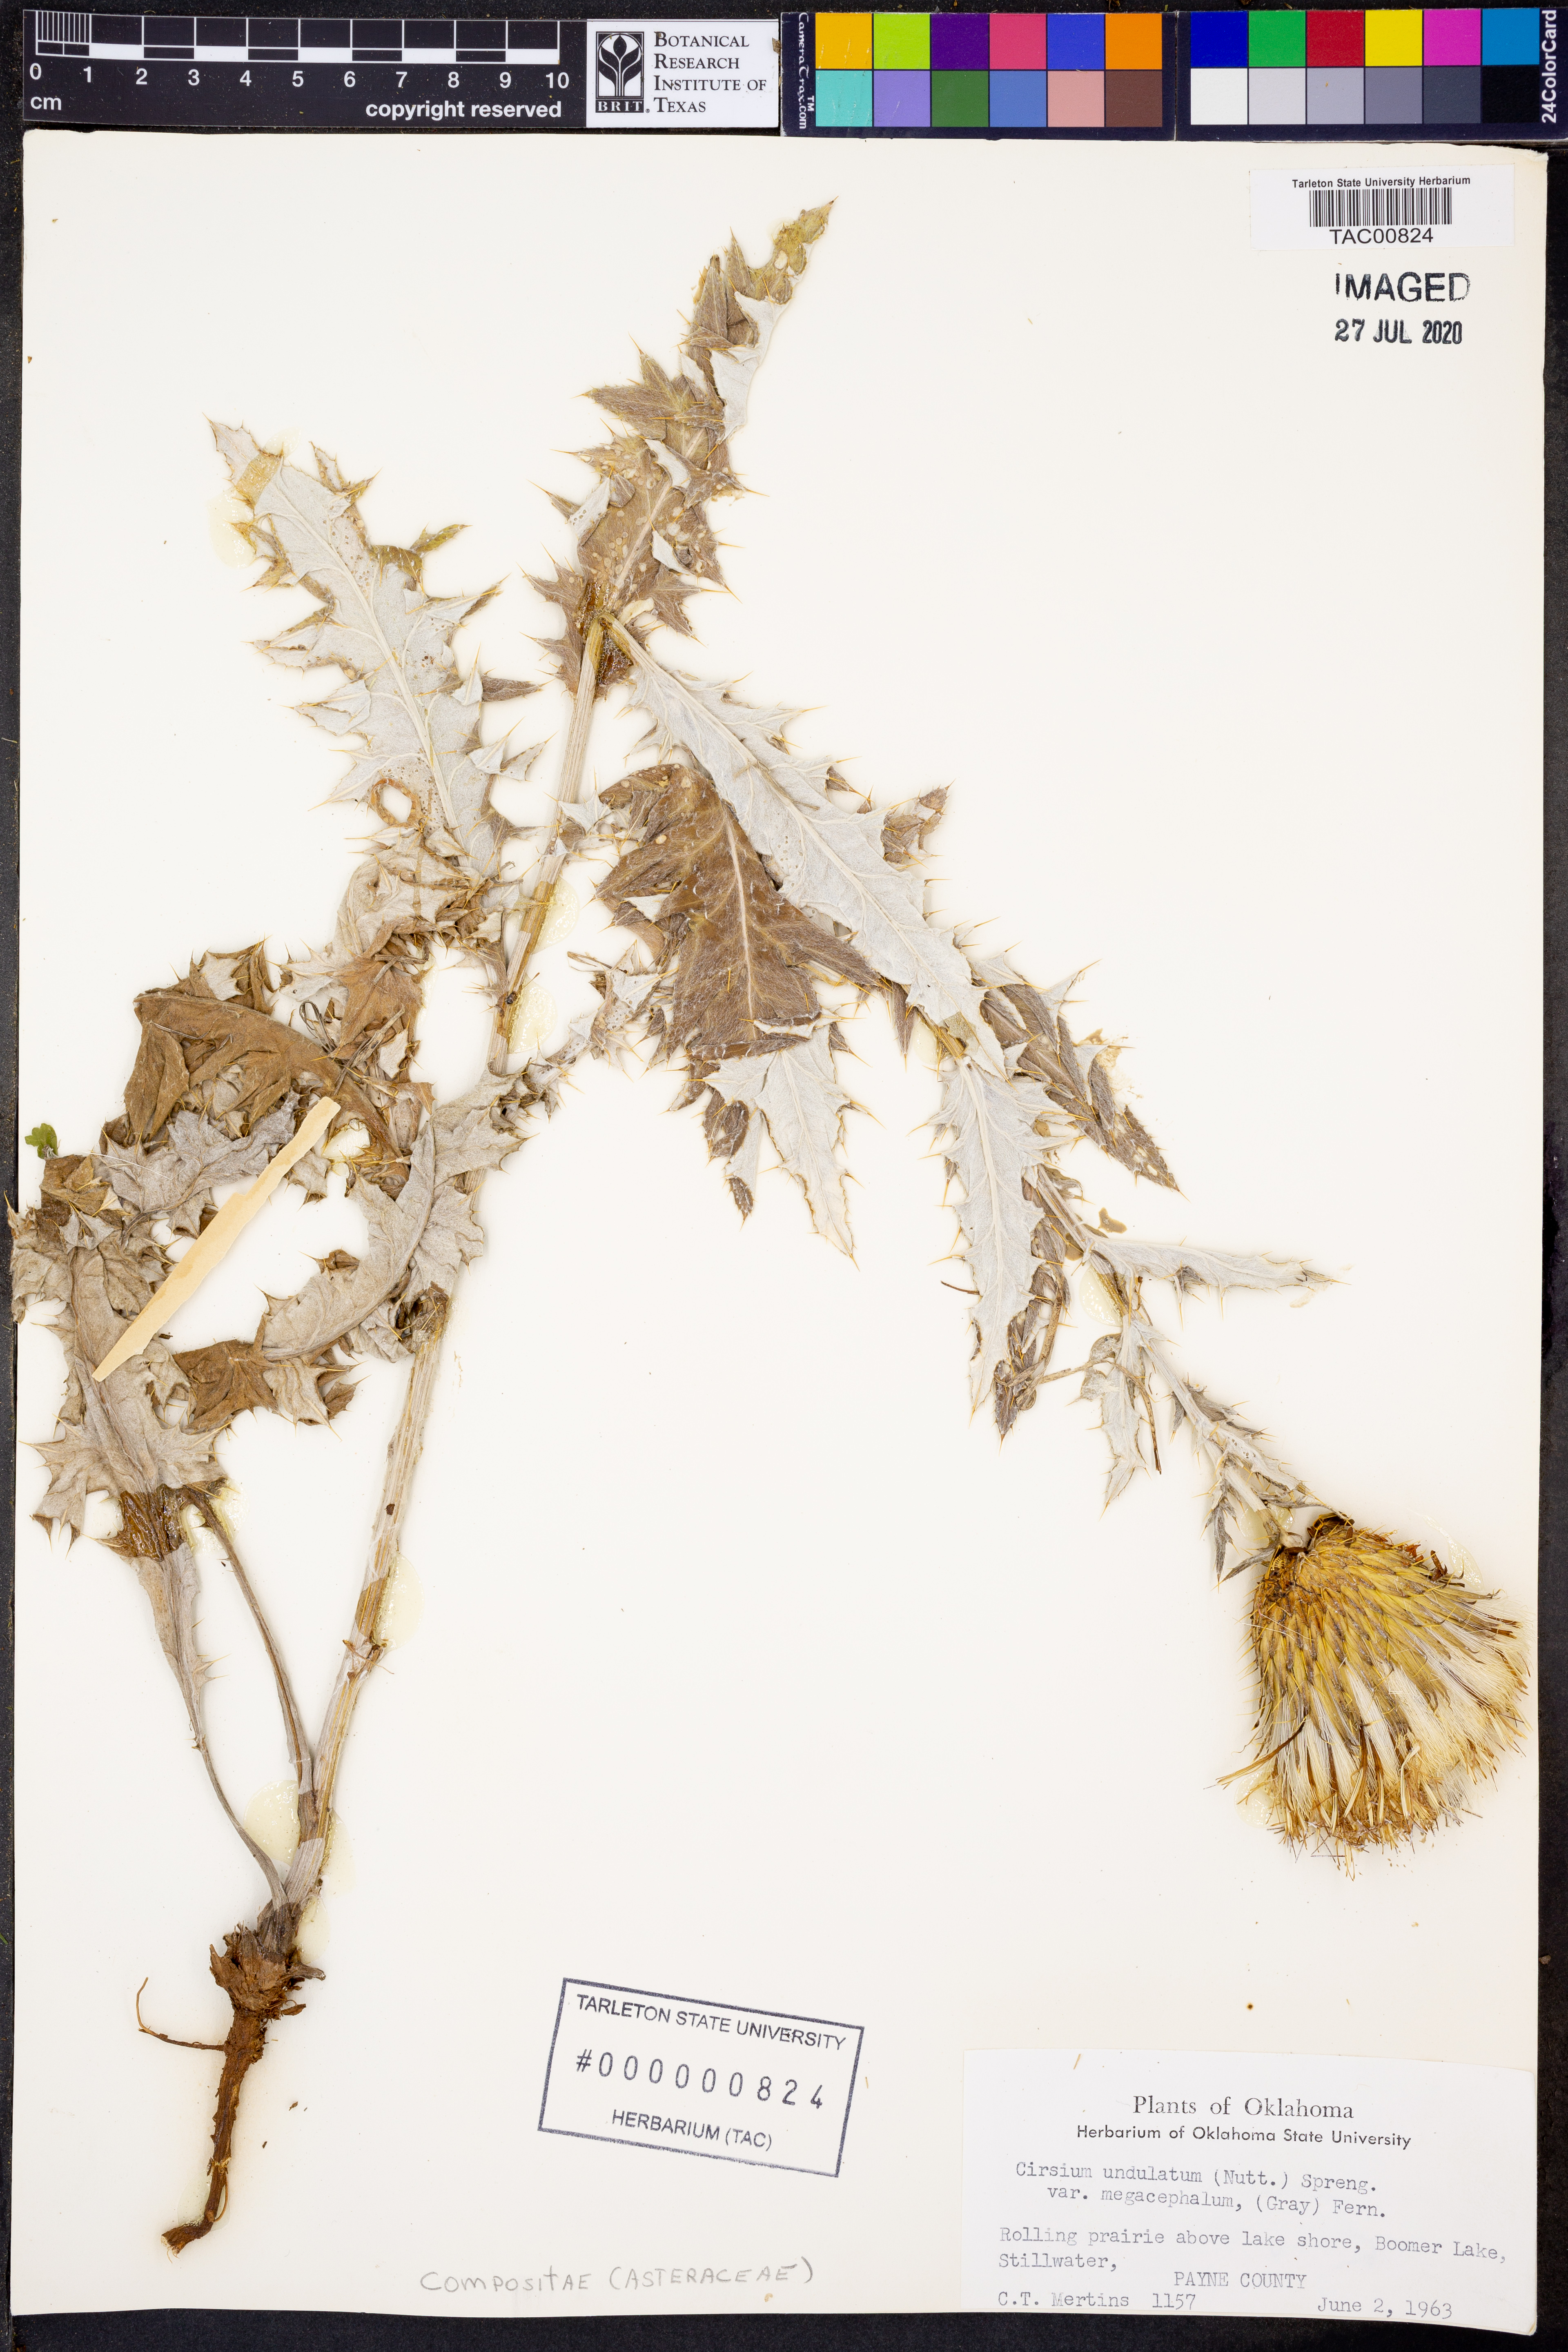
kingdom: Plantae
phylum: Tracheophyta
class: Magnoliopsida
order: Asterales
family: Asteraceae
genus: Cirsium
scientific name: Cirsium undulatum
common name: Pasture thistle
